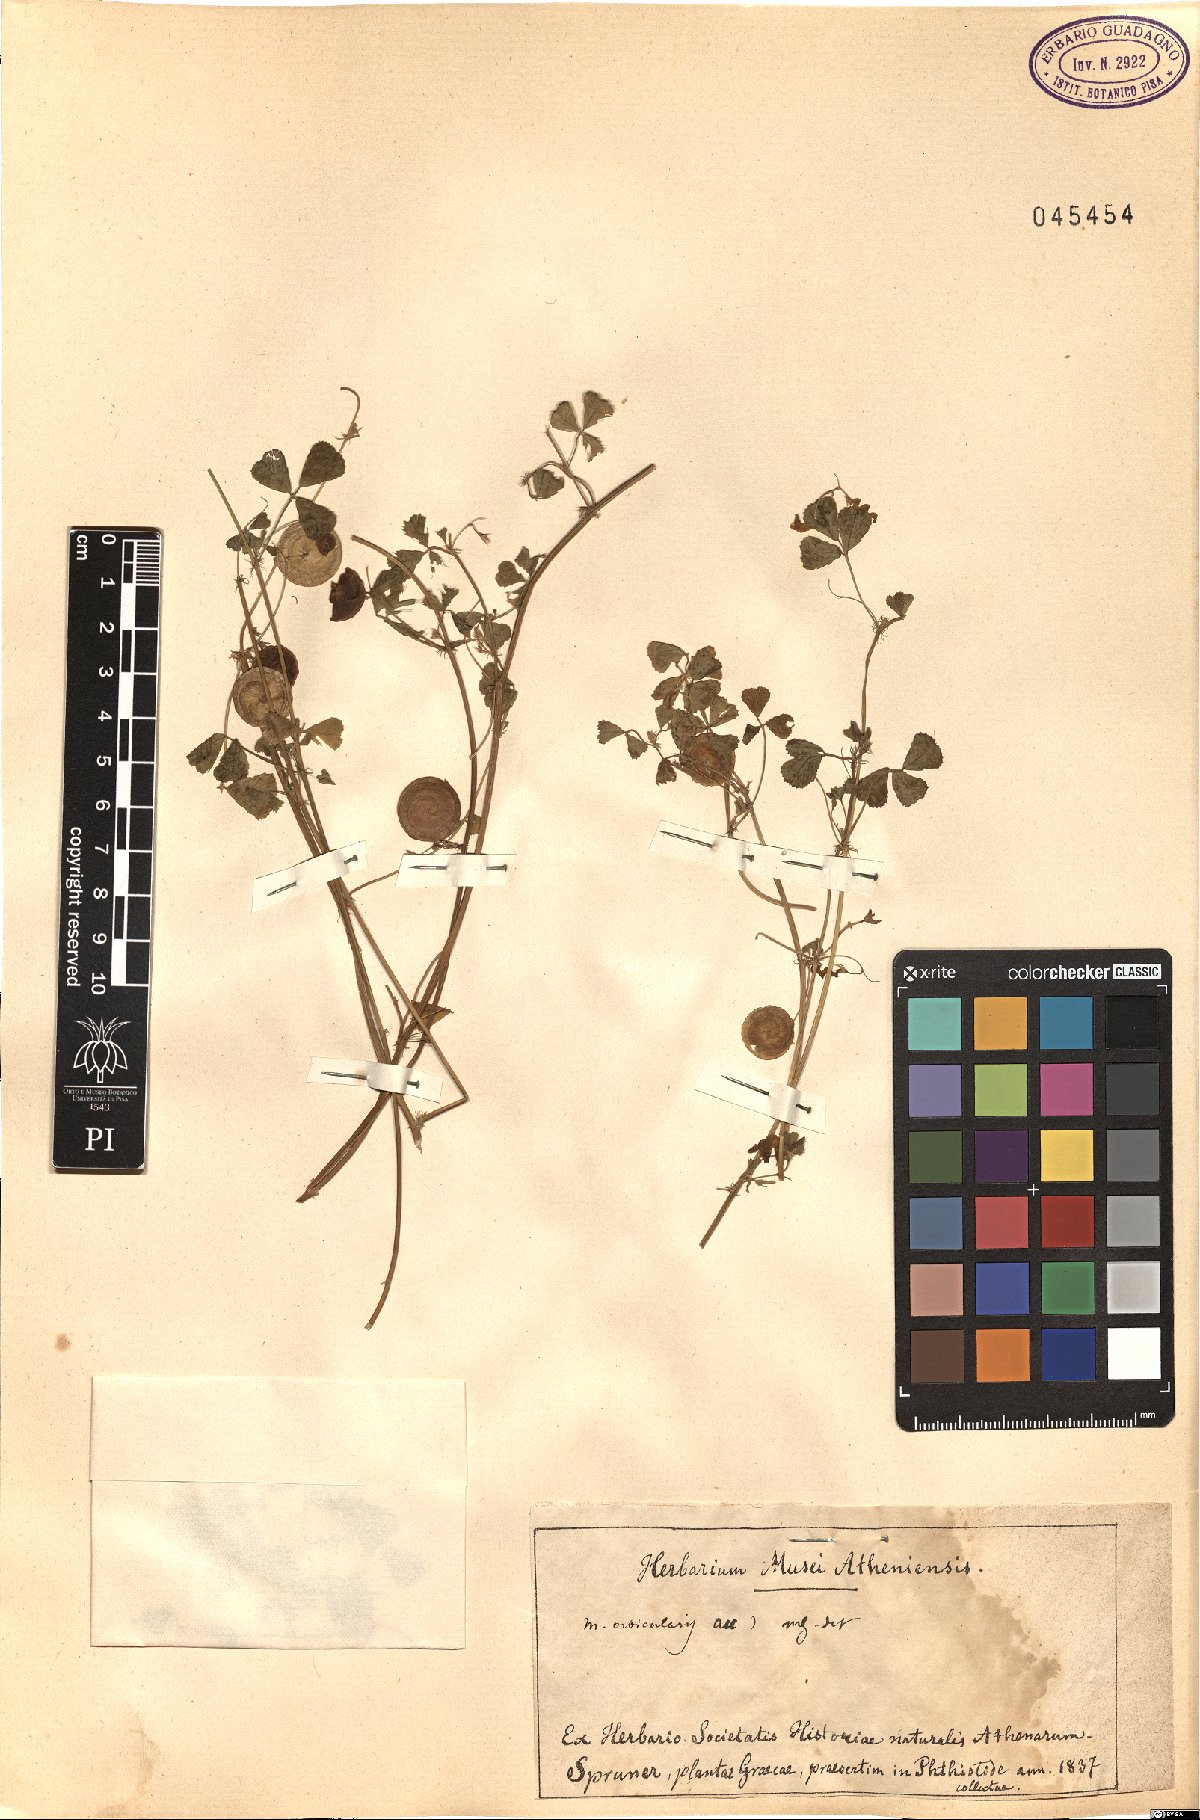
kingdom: Plantae
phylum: Tracheophyta
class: Magnoliopsida
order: Fabales
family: Fabaceae
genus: Medicago
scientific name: Medicago orbicularis
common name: Button medick
